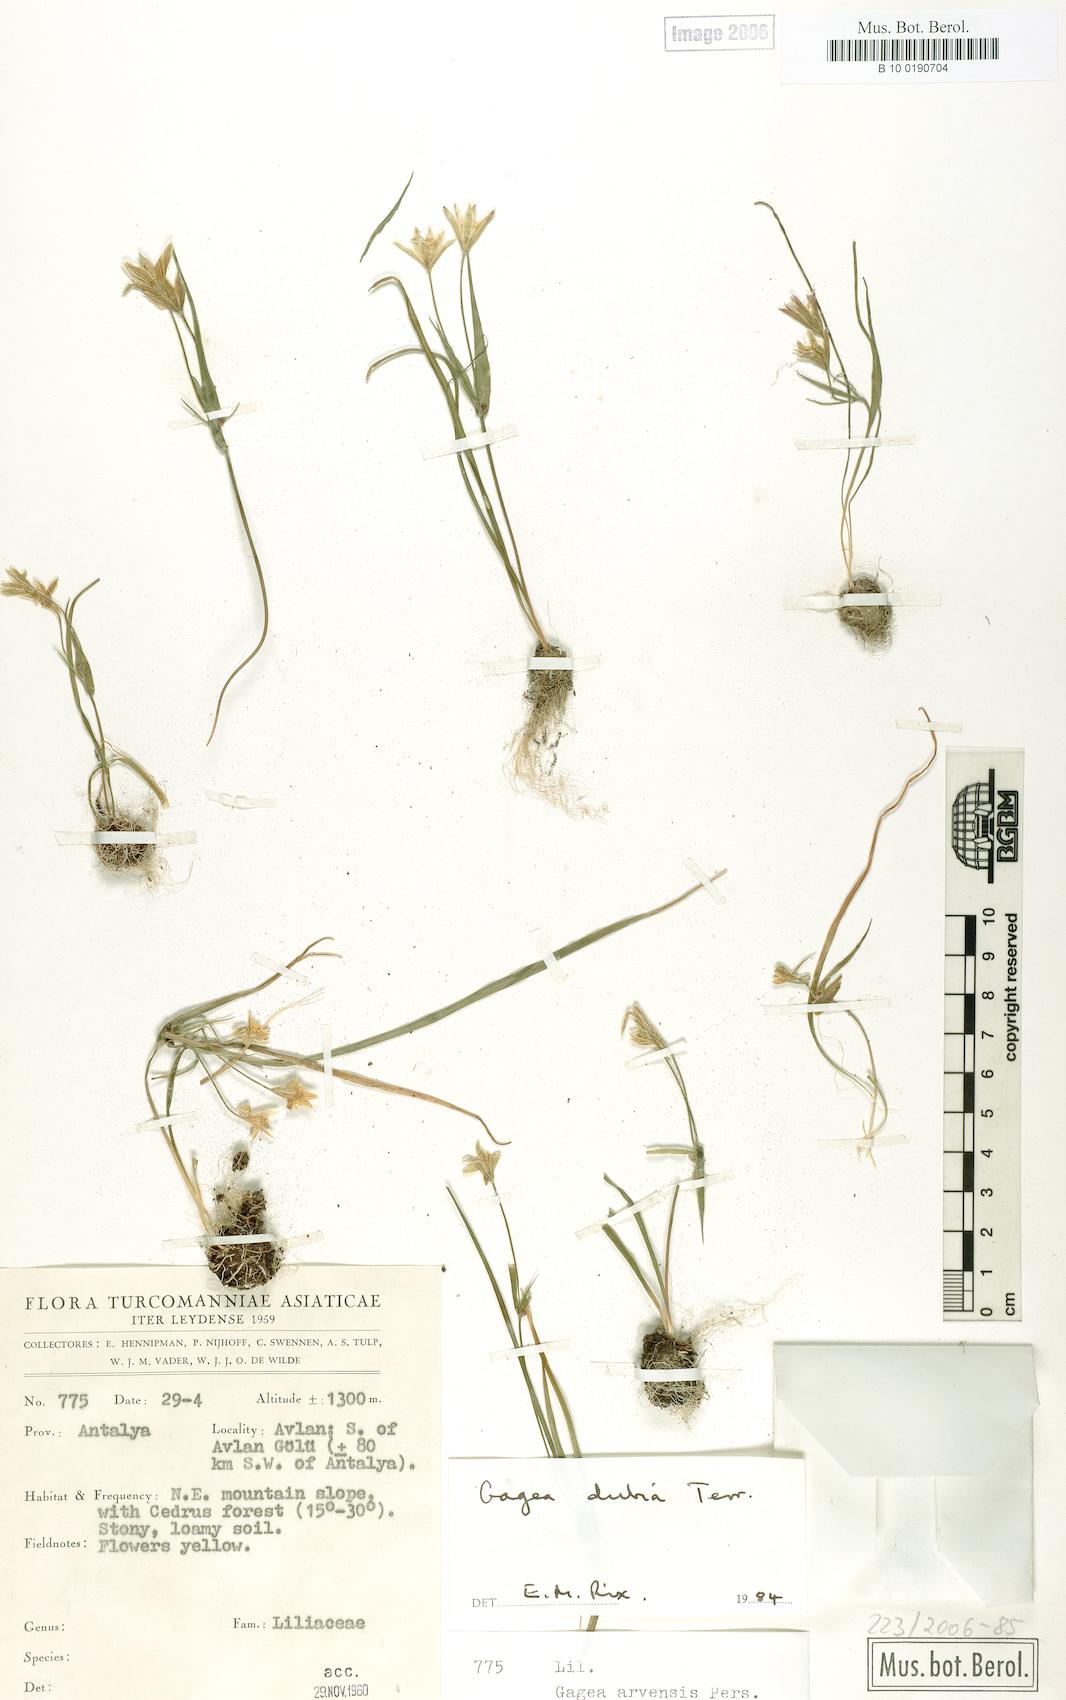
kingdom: Plantae
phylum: Tracheophyta
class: Liliopsida
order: Liliales
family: Liliaceae
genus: Gagea
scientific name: Gagea dubia
